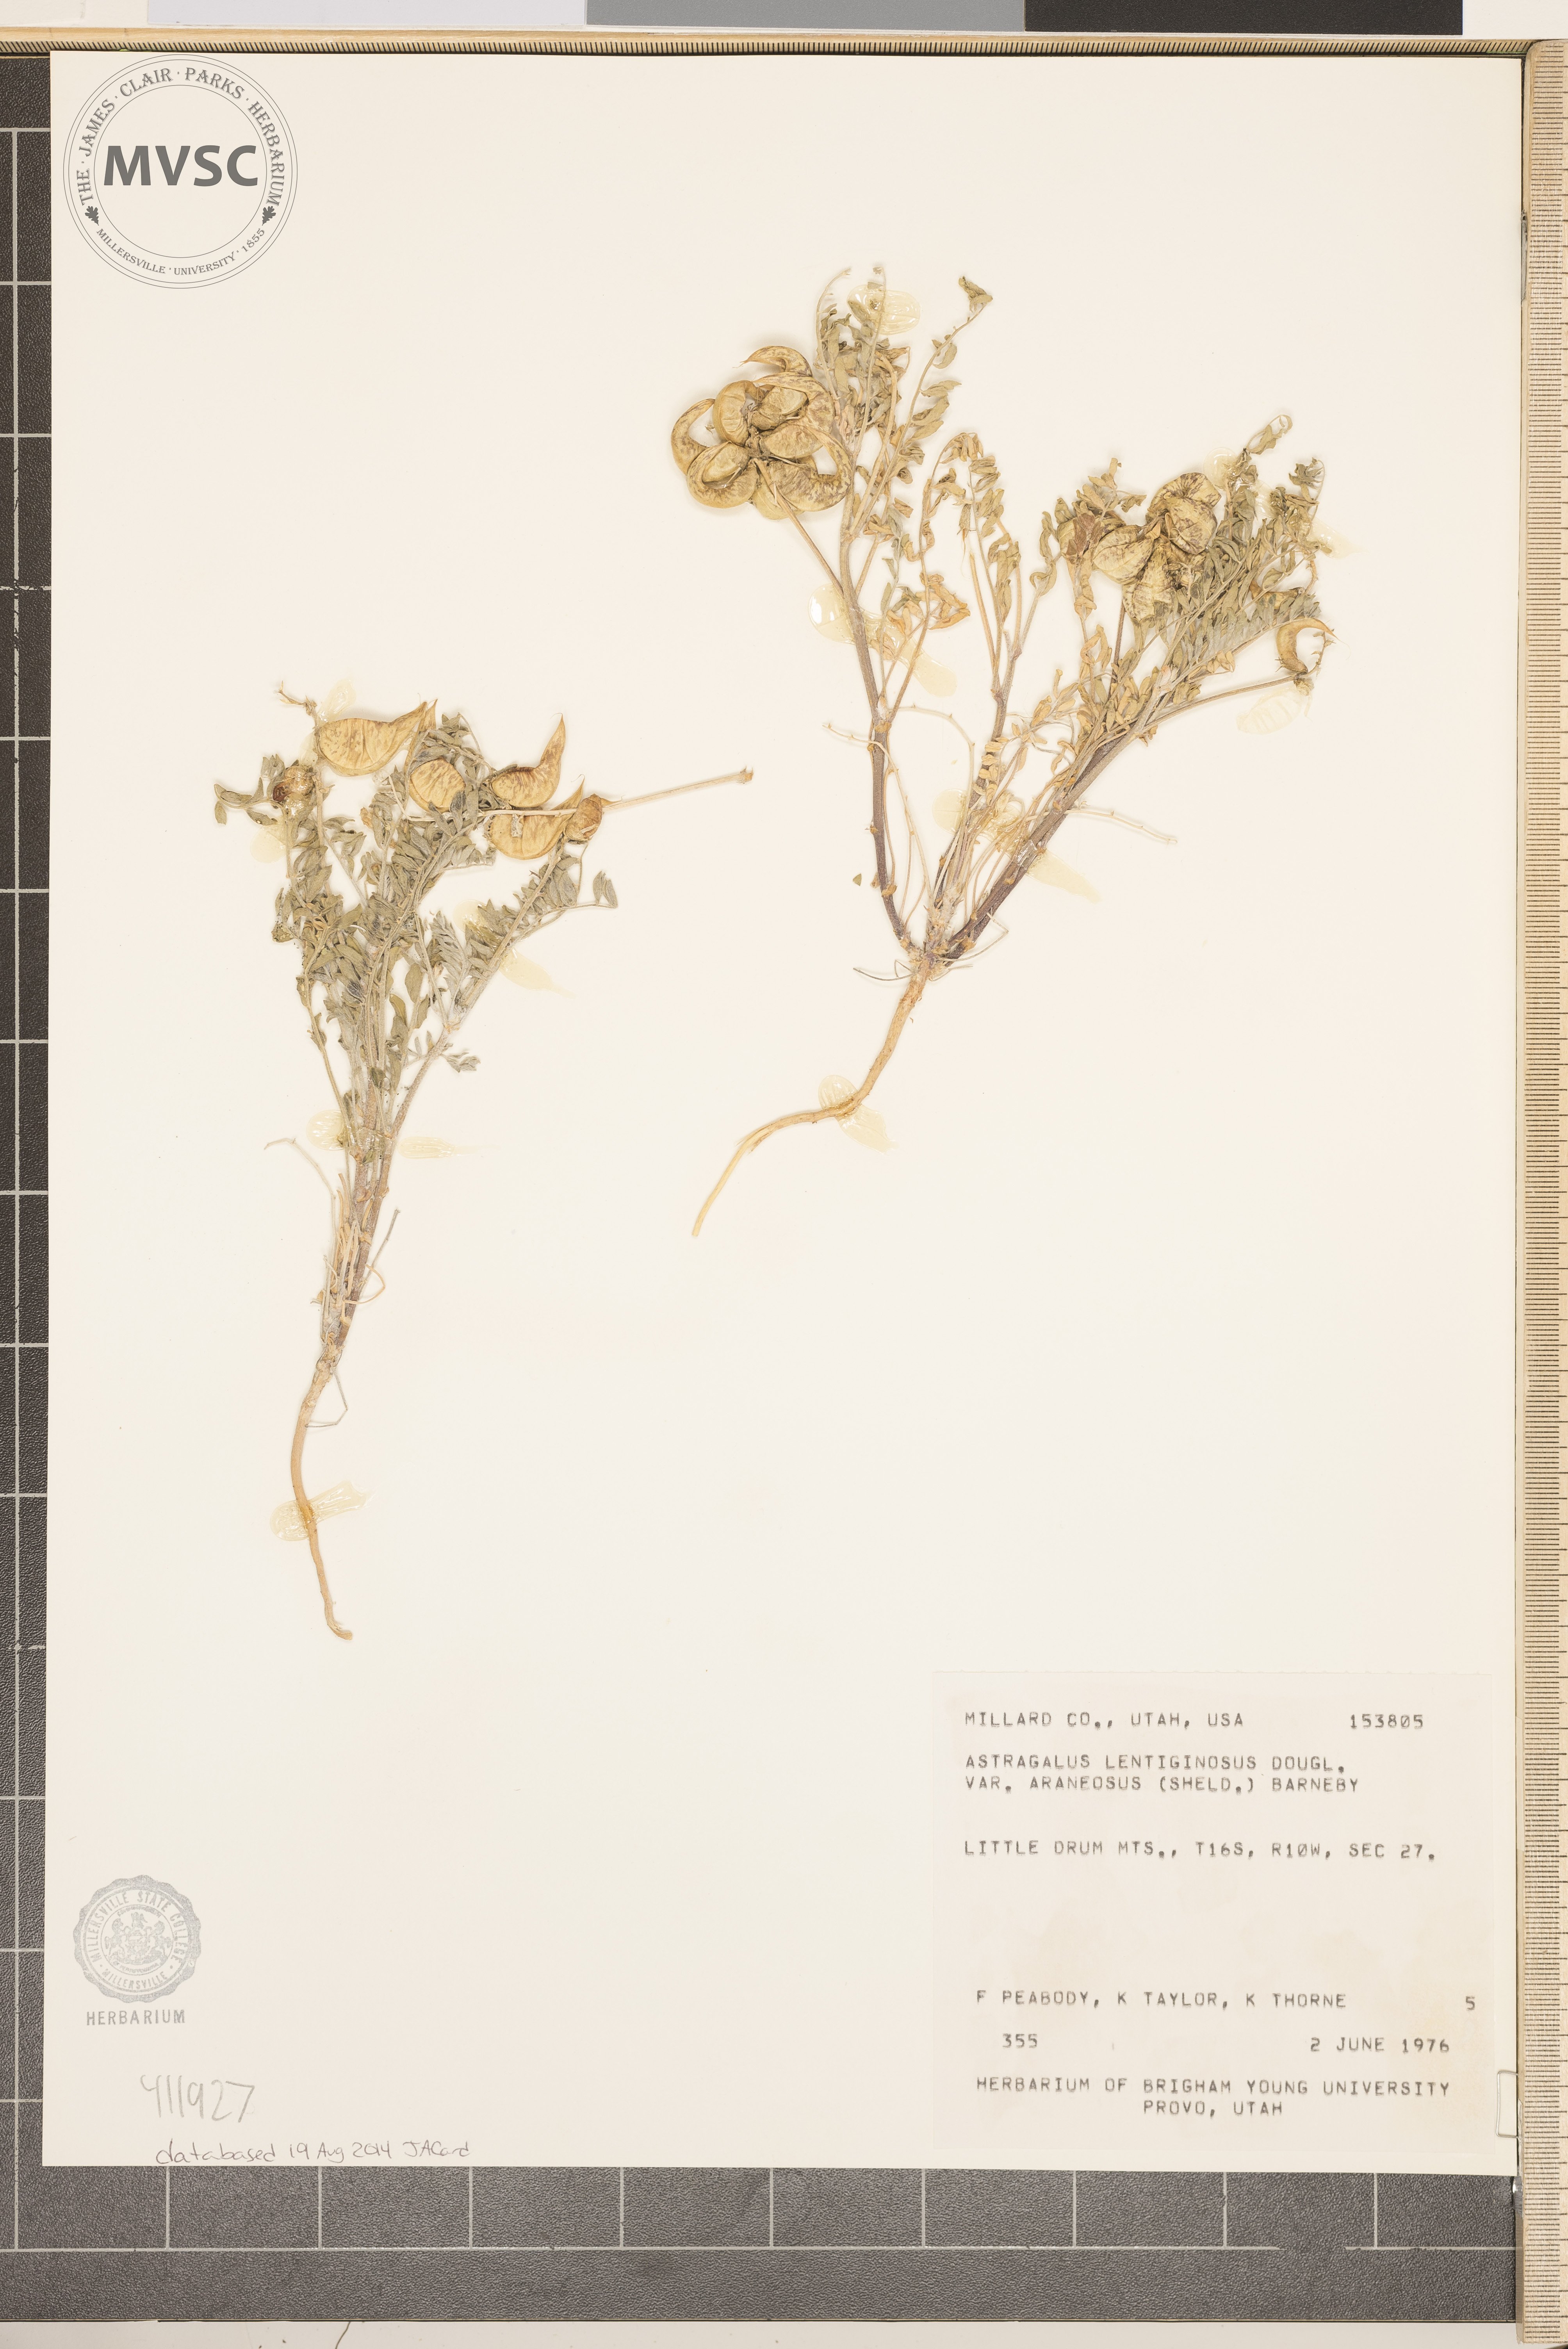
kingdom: Plantae
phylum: Tracheophyta
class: Magnoliopsida
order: Fabales
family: Fabaceae
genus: Astragalus
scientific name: Astragalus lentiginosus
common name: Freckled milkvetch
